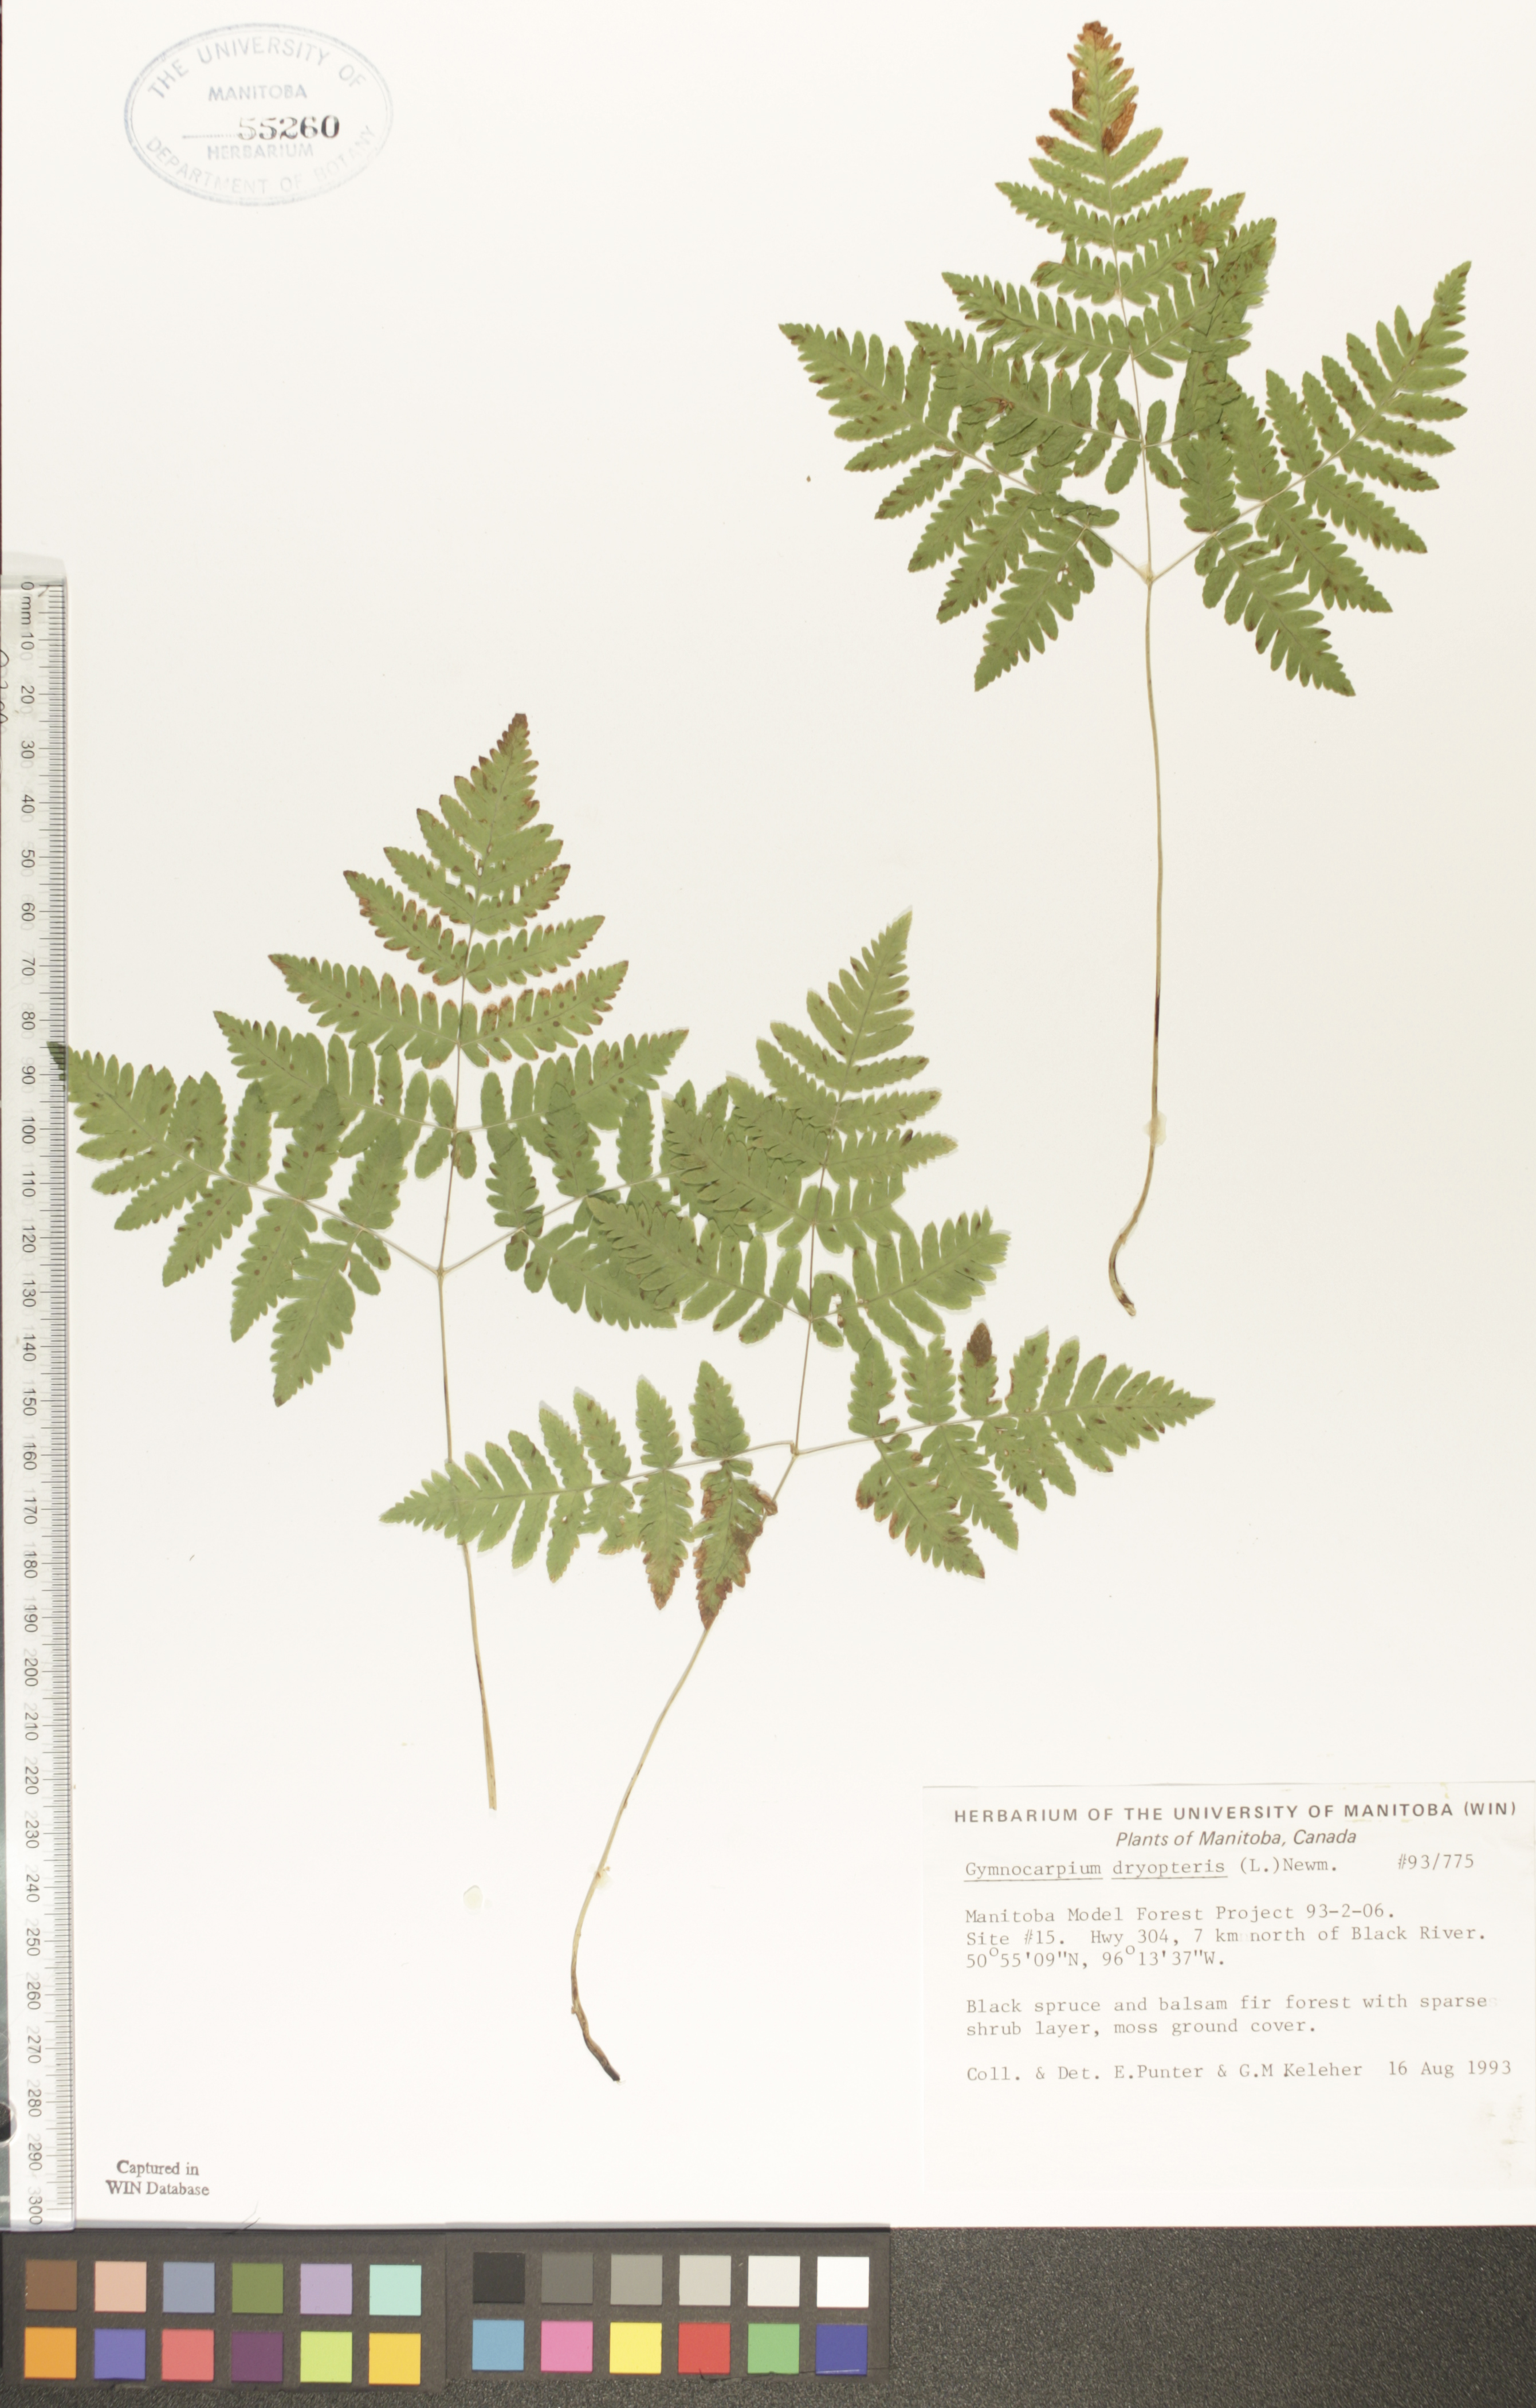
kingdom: Plantae
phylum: Tracheophyta
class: Polypodiopsida
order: Polypodiales
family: Cystopteridaceae
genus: Gymnocarpium
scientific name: Gymnocarpium dryopteris
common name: Oak fern
